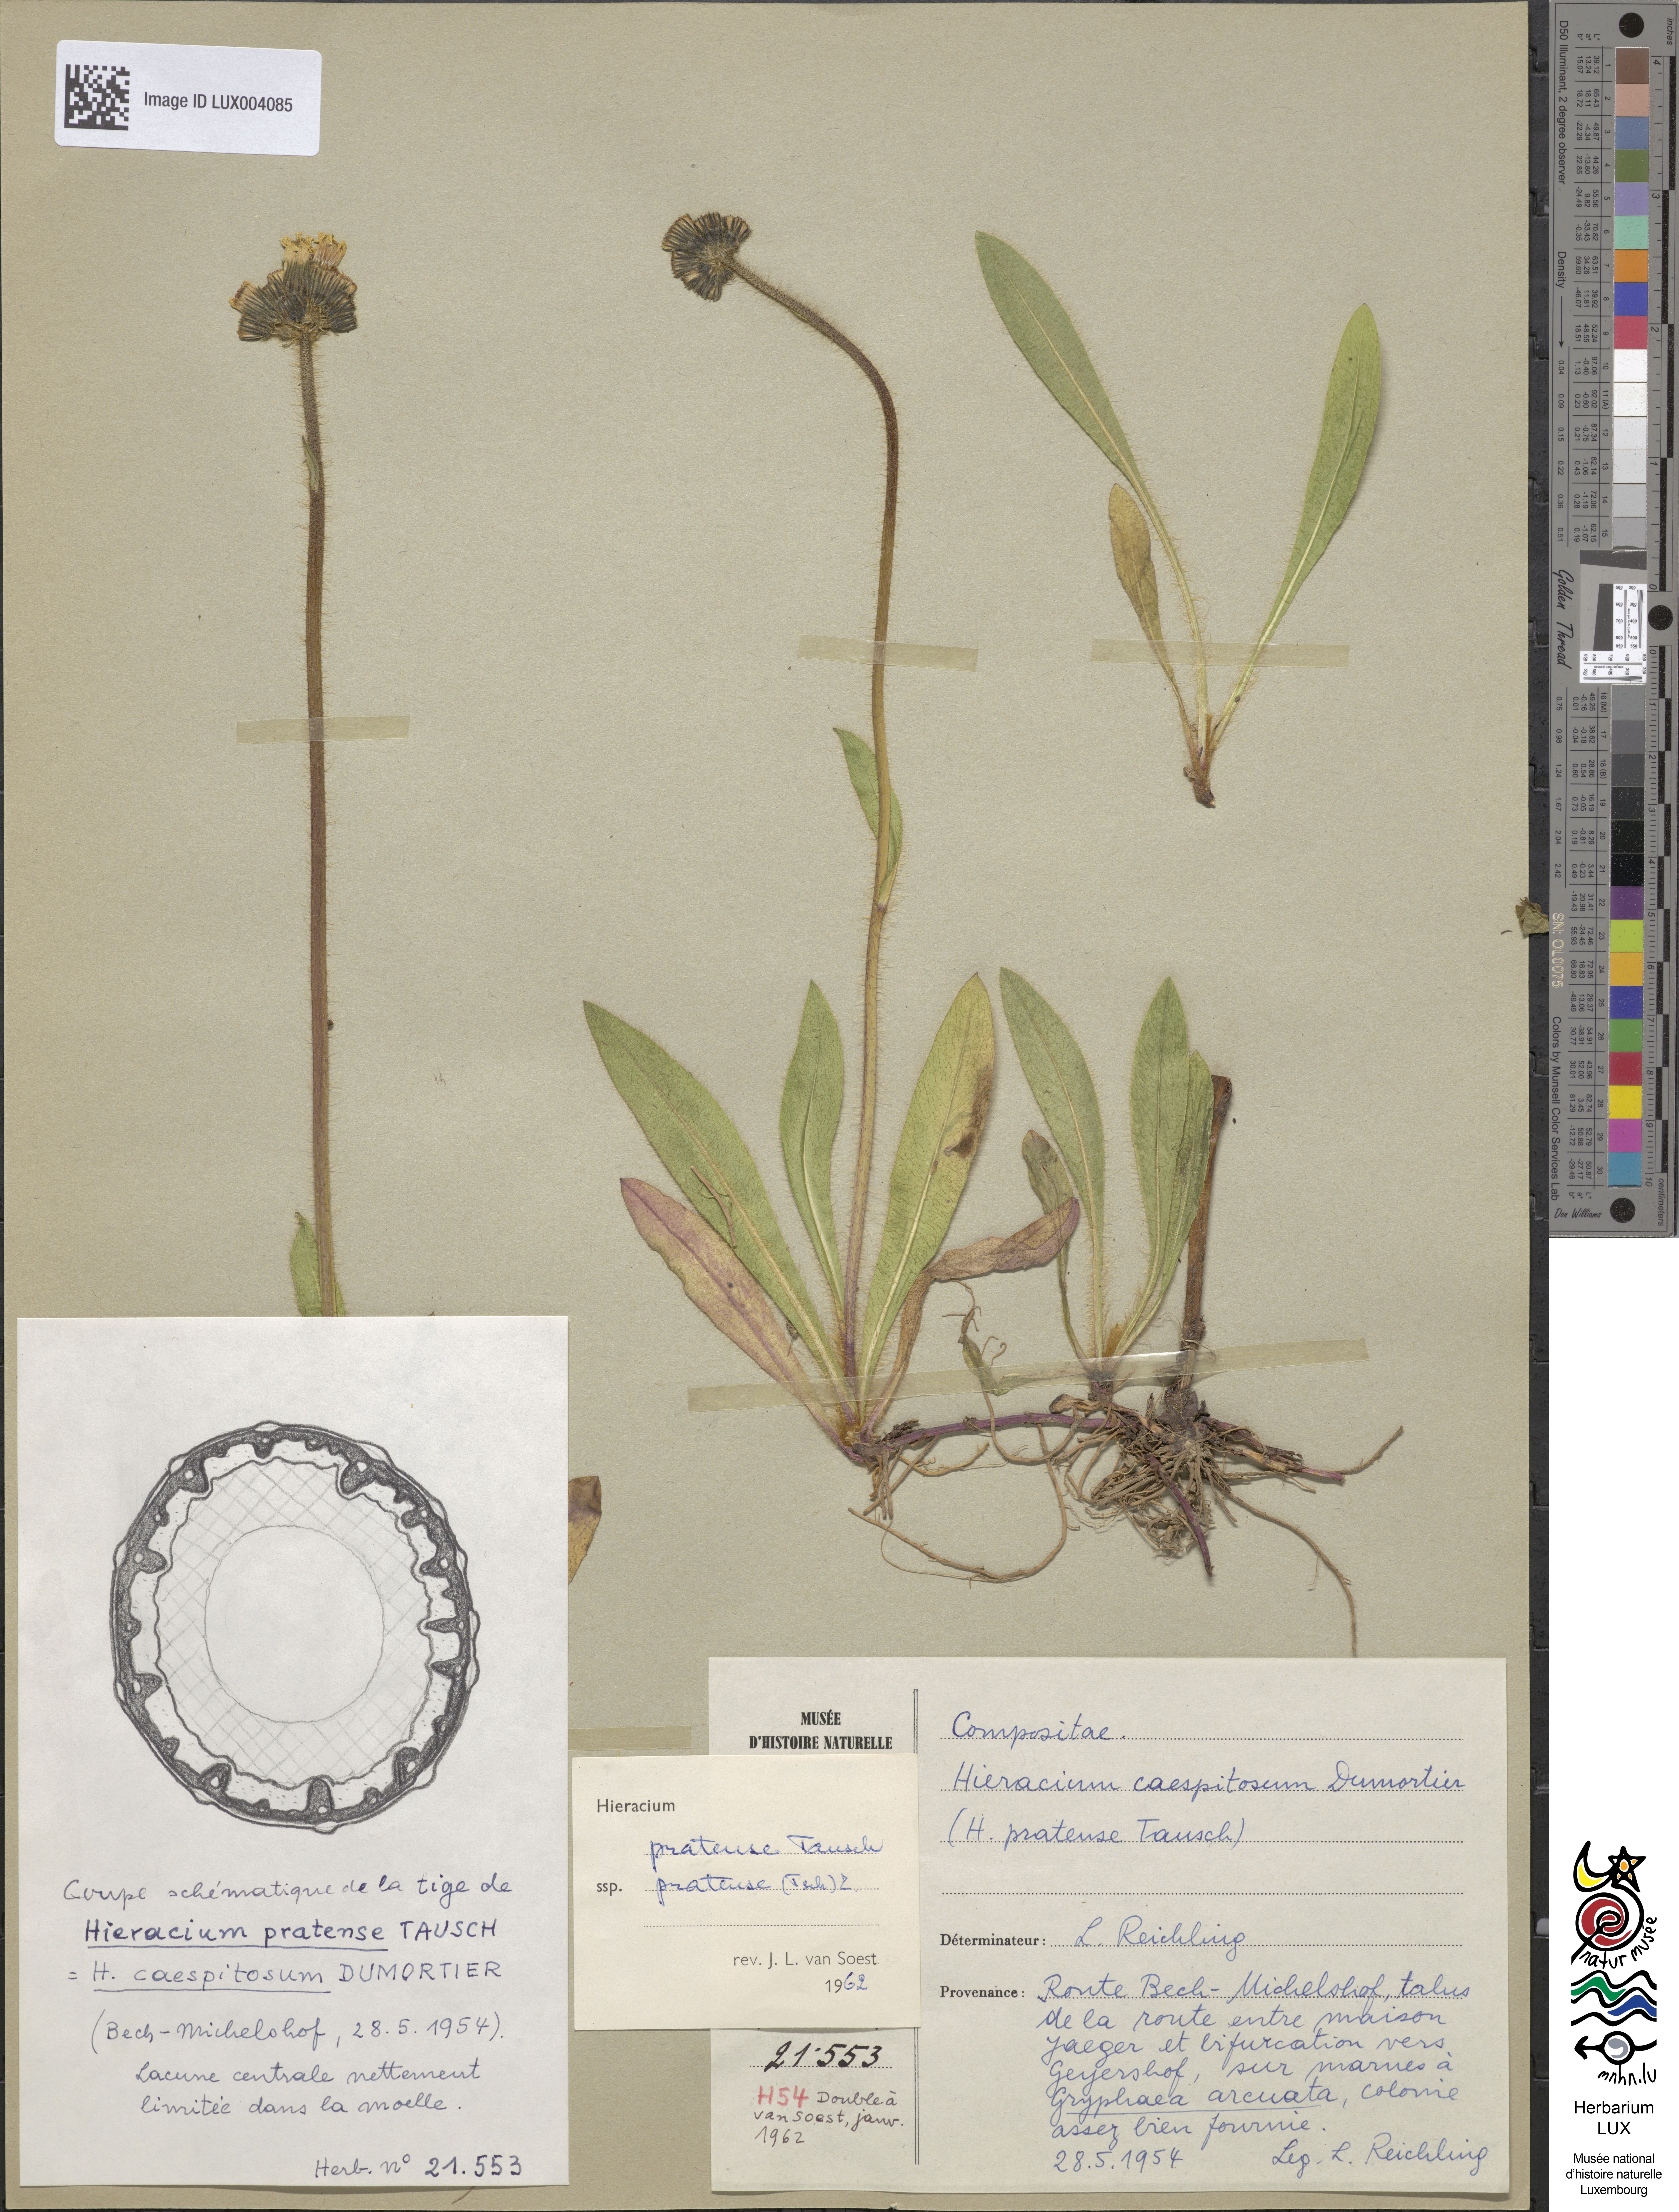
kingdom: Plantae
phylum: Tracheophyta
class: Magnoliopsida
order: Asterales
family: Asteraceae
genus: Pilosella
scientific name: Pilosella caespitosa
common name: Yellow fox-and-cubs
